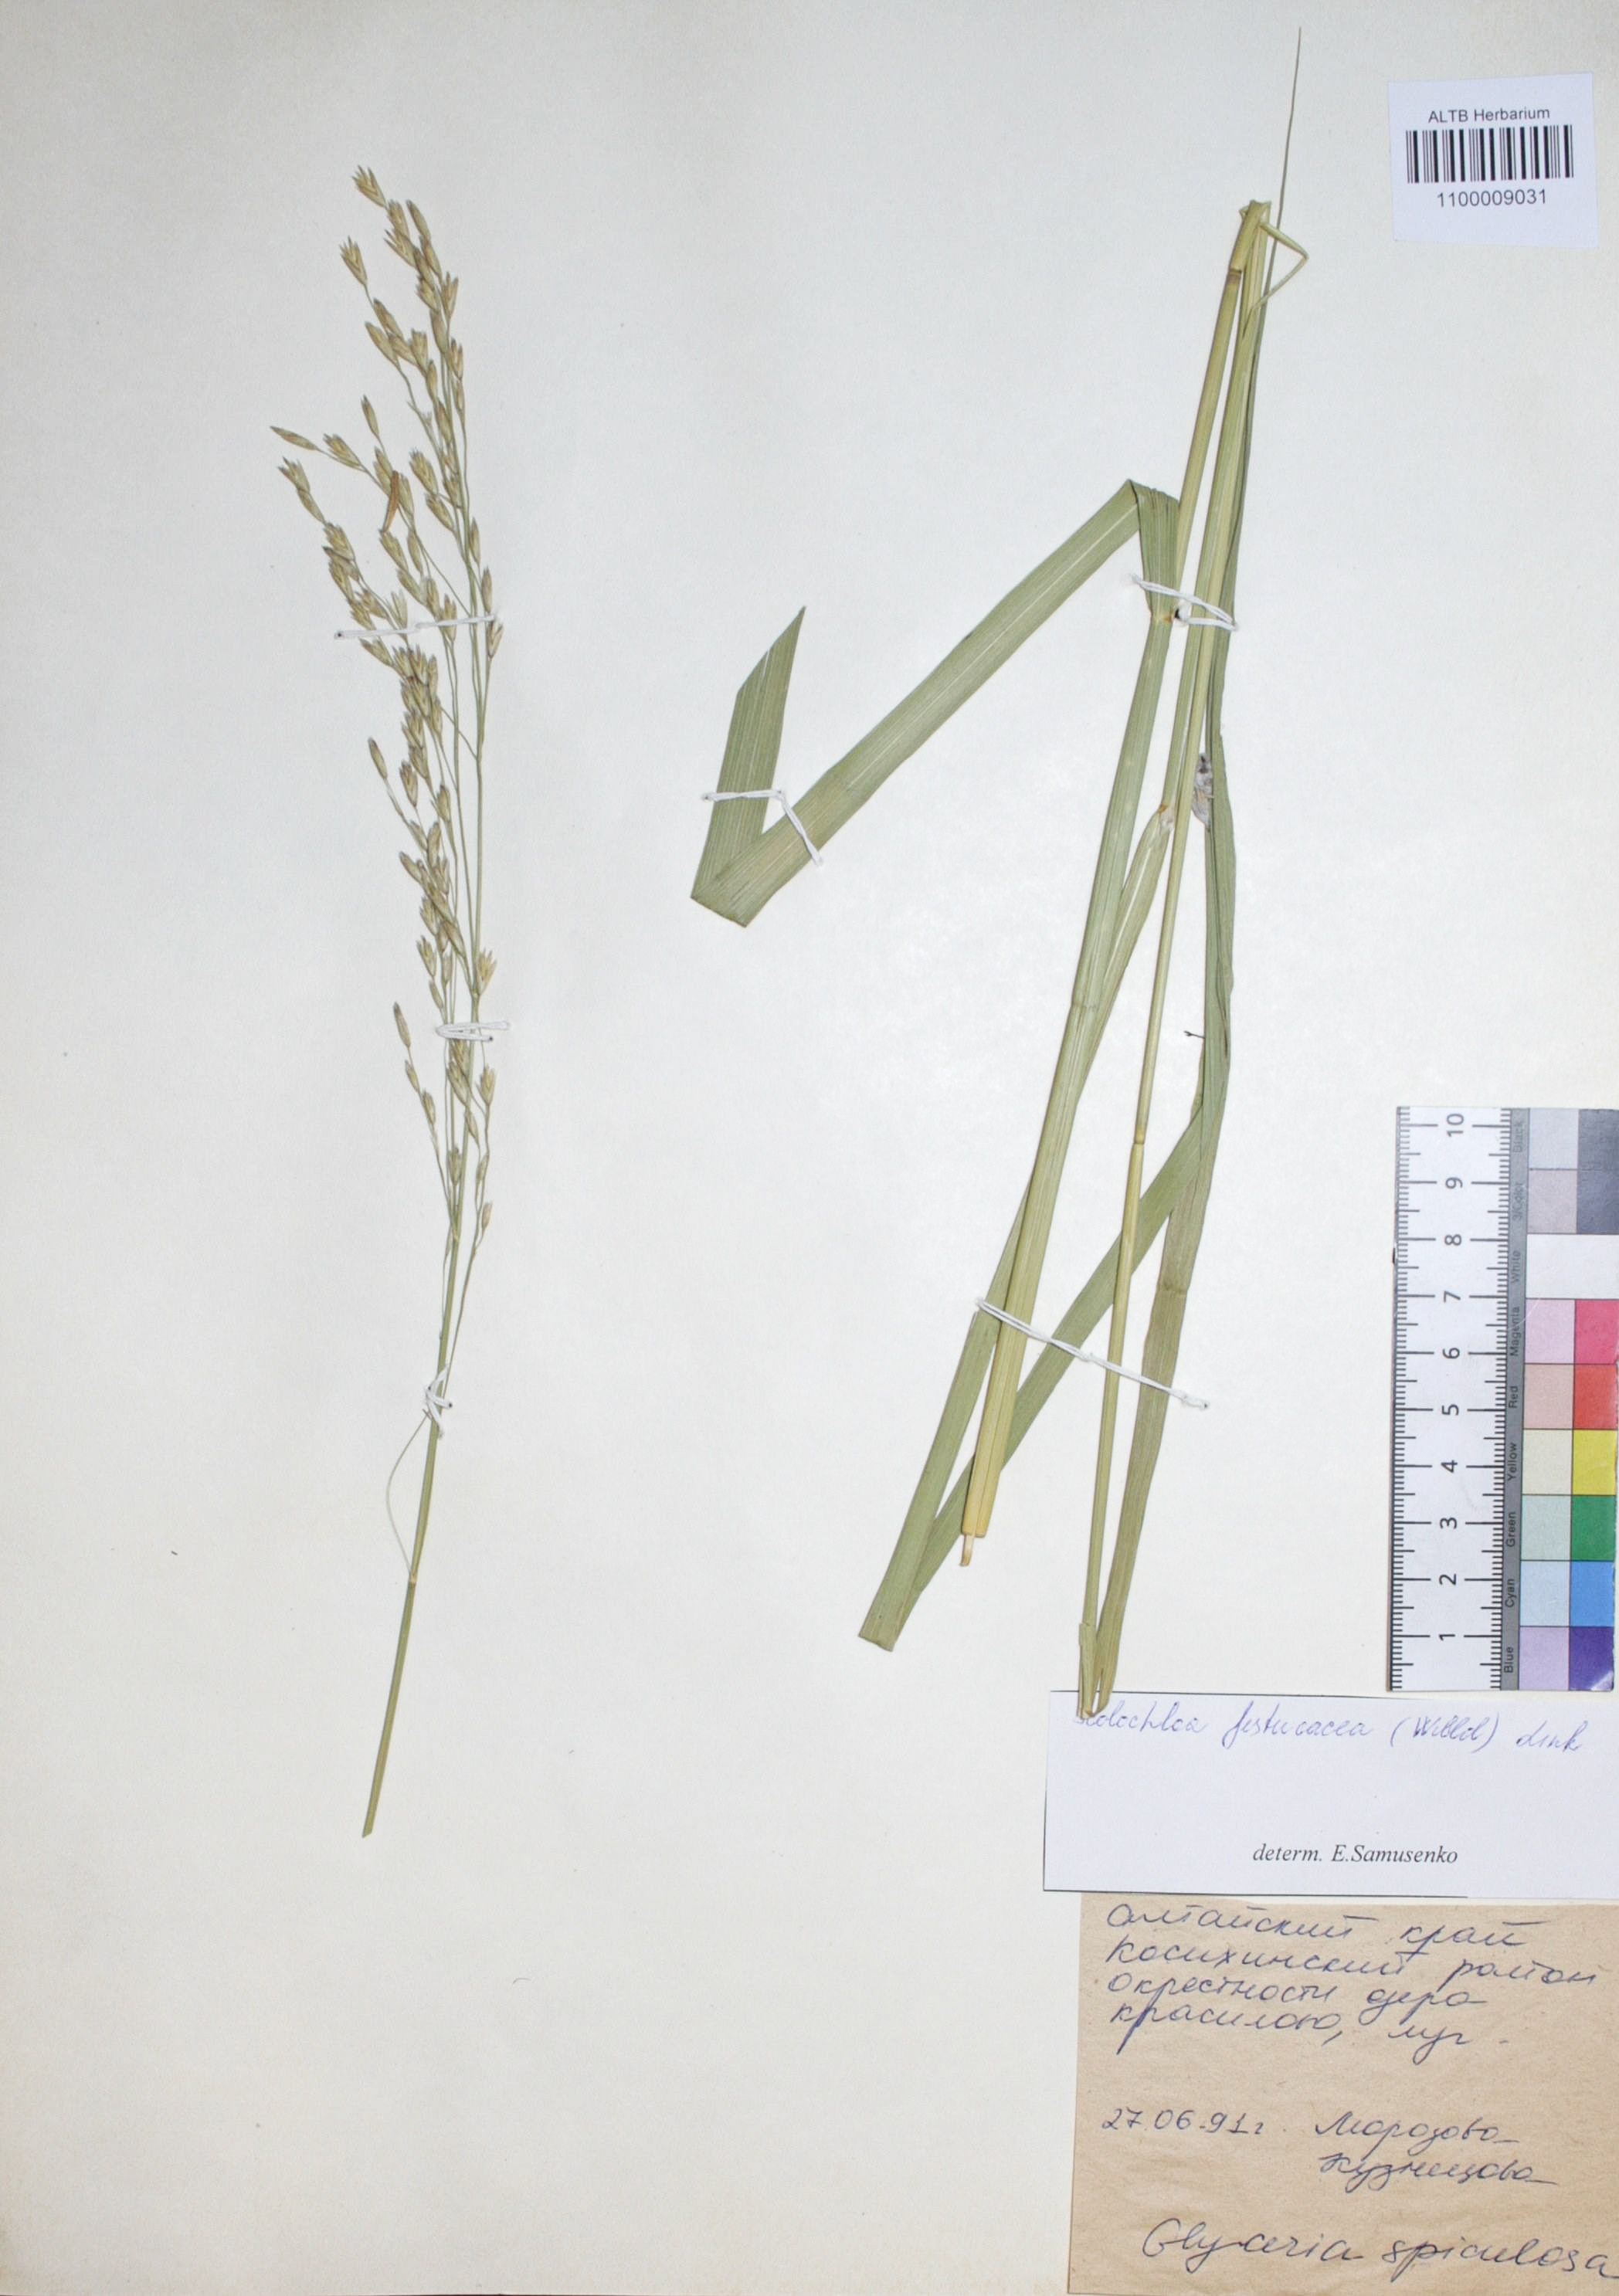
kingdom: Plantae
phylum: Tracheophyta
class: Liliopsida
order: Poales
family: Poaceae
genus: Scolochloa
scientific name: Scolochloa festucacea
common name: Common rivergrass
